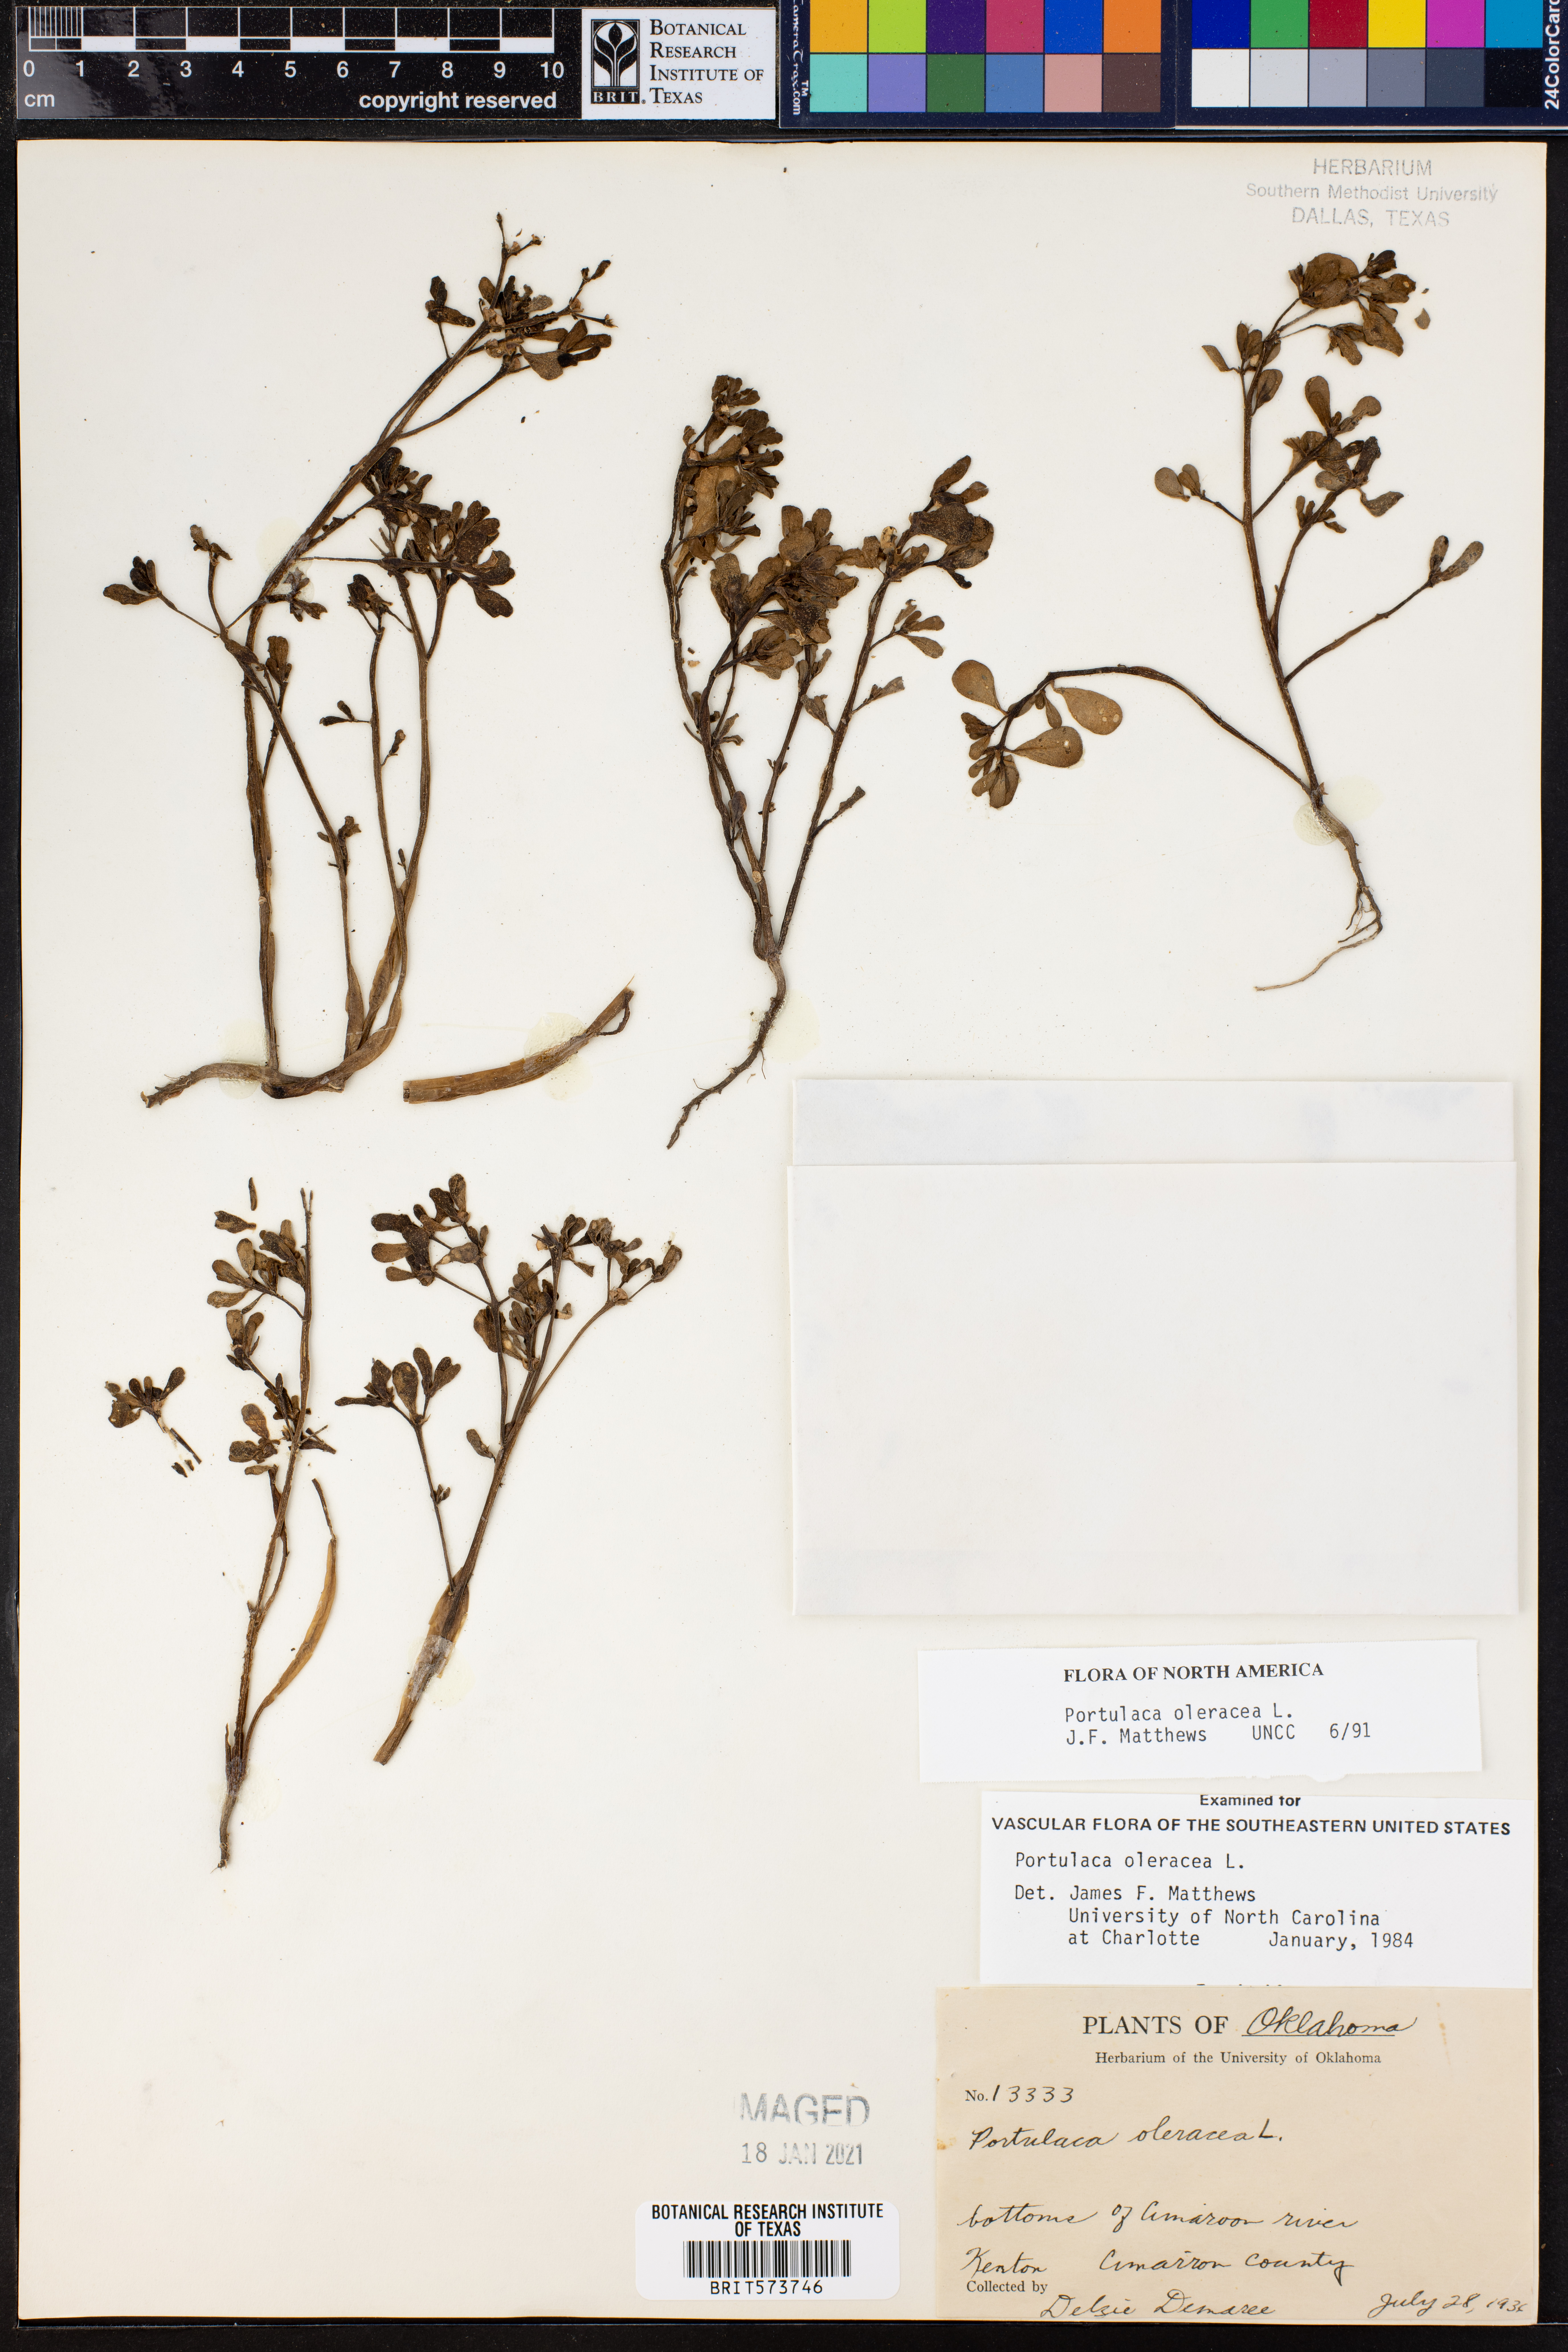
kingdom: Plantae
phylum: Tracheophyta
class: Magnoliopsida
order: Caryophyllales
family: Portulacaceae
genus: Portulaca
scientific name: Portulaca oleracea
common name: Common purslane
